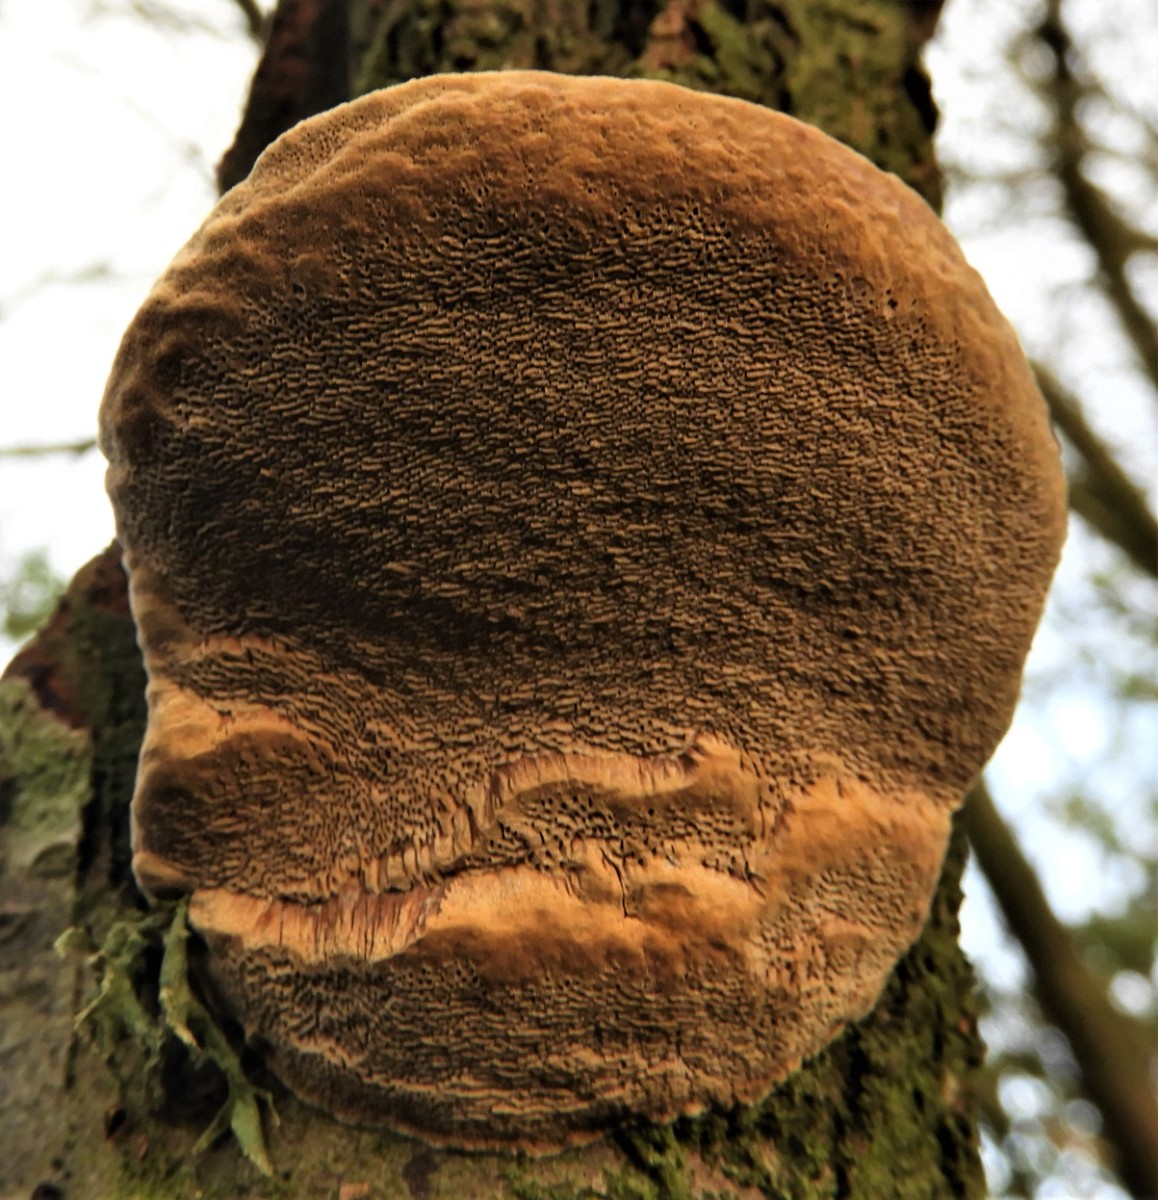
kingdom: Fungi
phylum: Basidiomycota
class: Agaricomycetes
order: Hymenochaetales
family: Hymenochaetaceae
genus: Phellinus
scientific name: Phellinus pomaceus
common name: blomme-ildporesvamp
